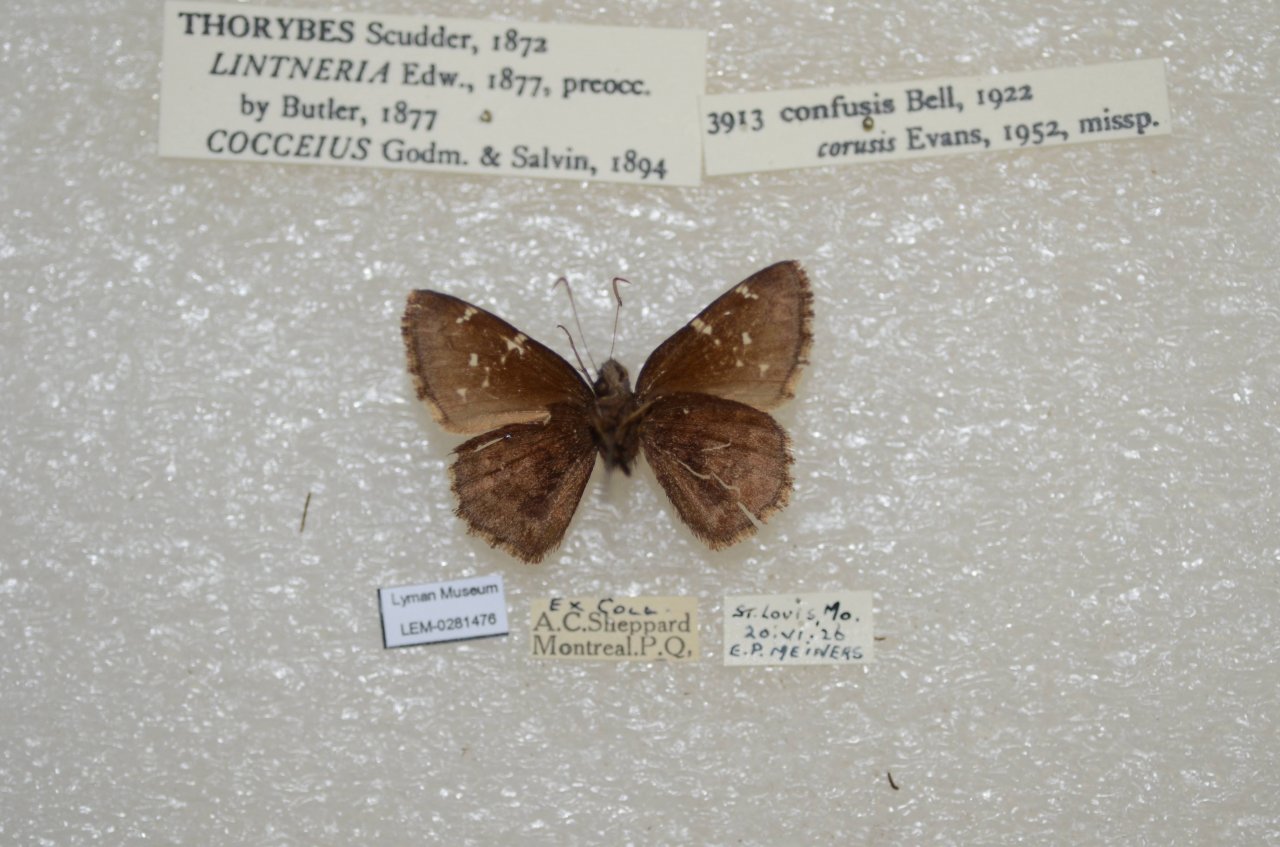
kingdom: Animalia
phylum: Arthropoda
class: Insecta
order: Lepidoptera
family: Hesperiidae
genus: Thorybes
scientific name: Thorybes mexicana
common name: Confused Cloudywing
